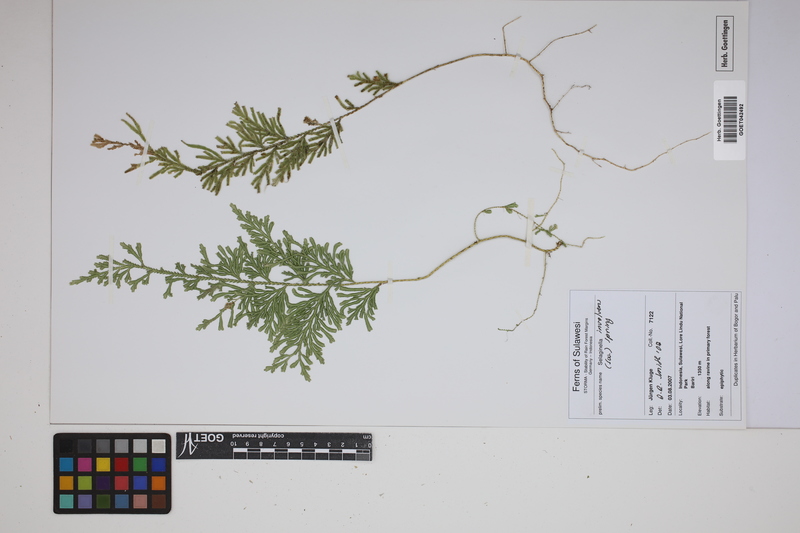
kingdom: Plantae
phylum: Tracheophyta
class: Lycopodiopsida
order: Selaginellales
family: Selaginellaceae
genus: Selaginella
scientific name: Selaginella involvens
